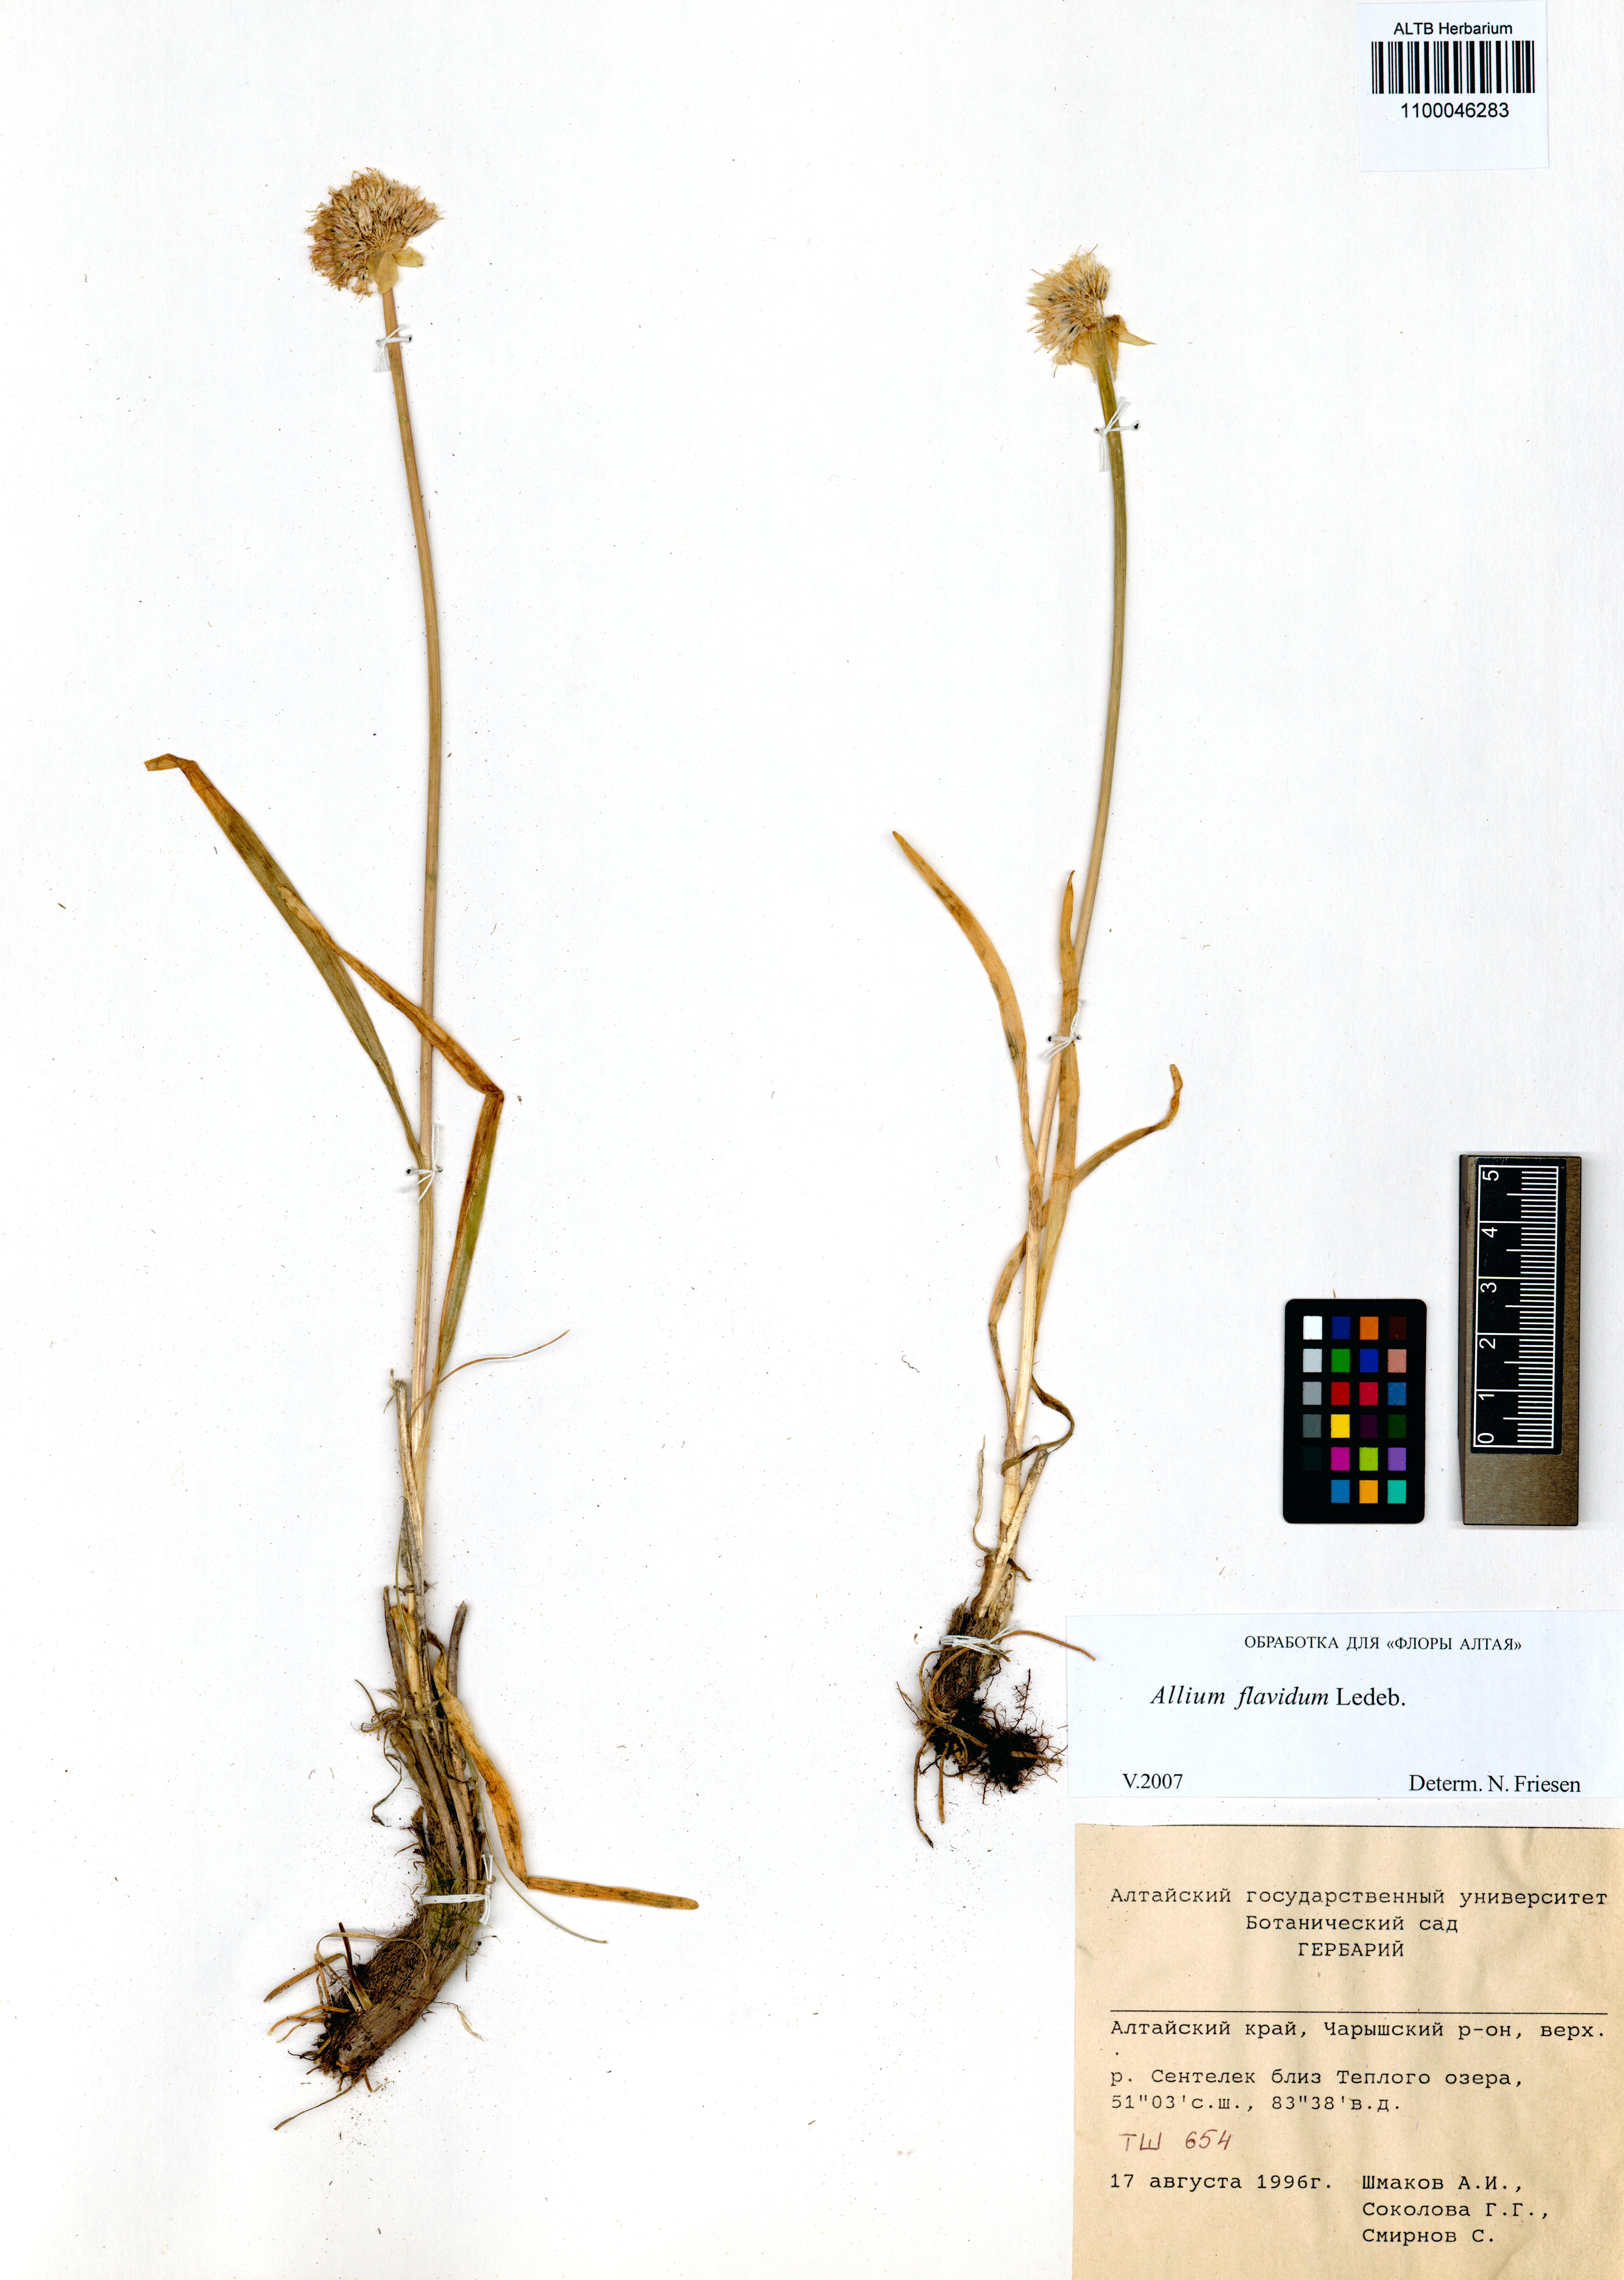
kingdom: Plantae
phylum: Tracheophyta
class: Liliopsida
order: Asparagales
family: Amaryllidaceae
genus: Allium
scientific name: Allium flavidum
